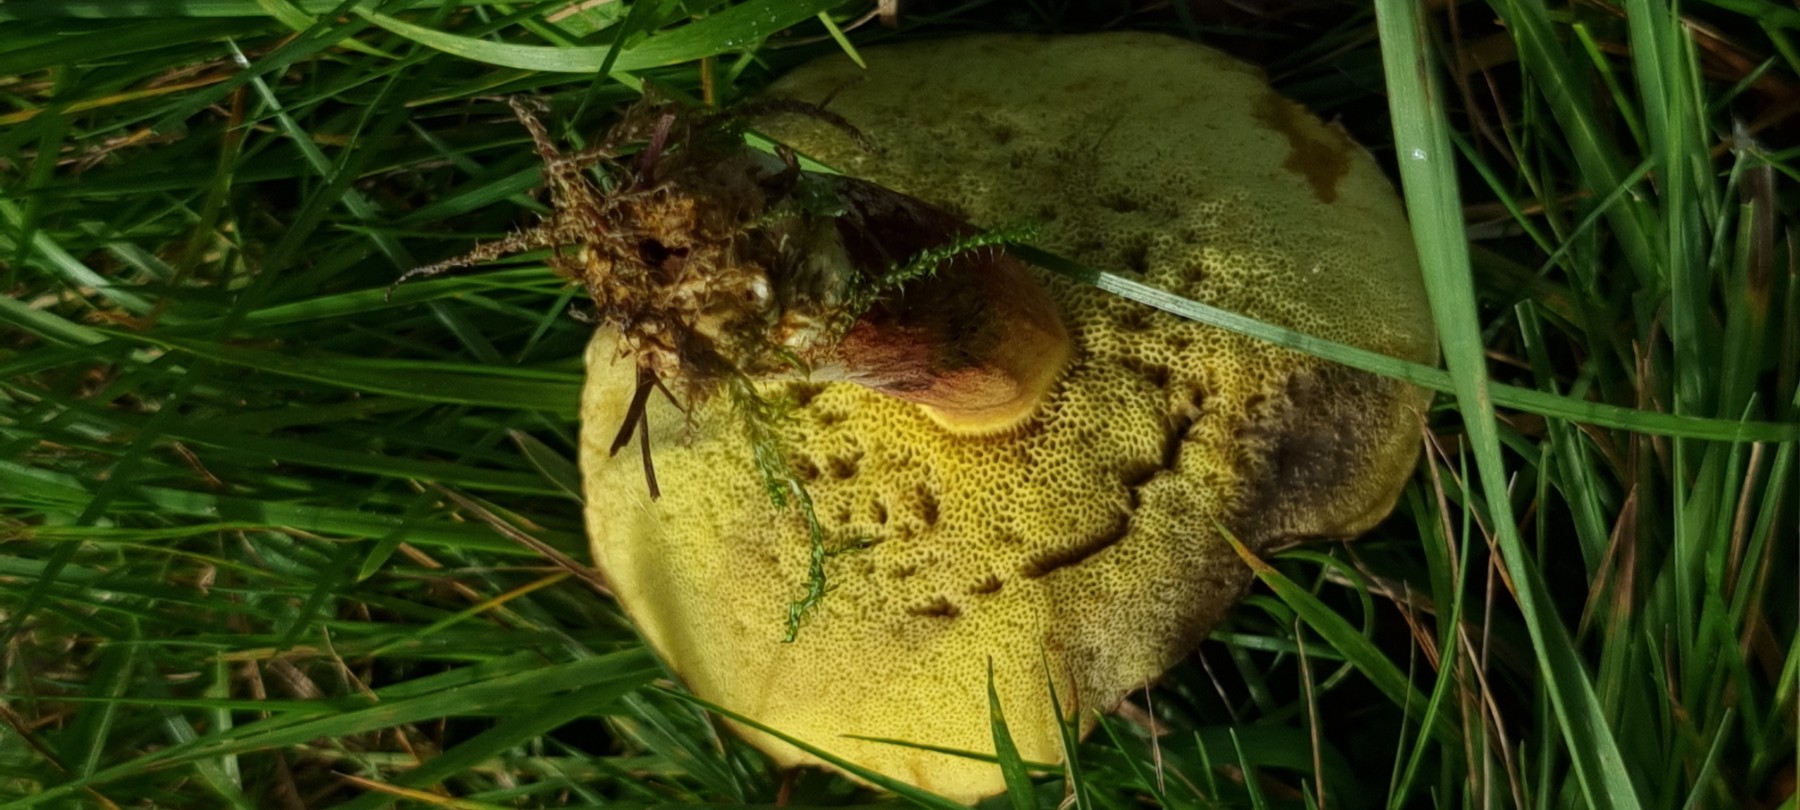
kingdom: Fungi
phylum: Basidiomycota
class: Agaricomycetes
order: Boletales
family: Boletaceae
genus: Xerocomellus
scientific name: Xerocomellus
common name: dværgrørhat
